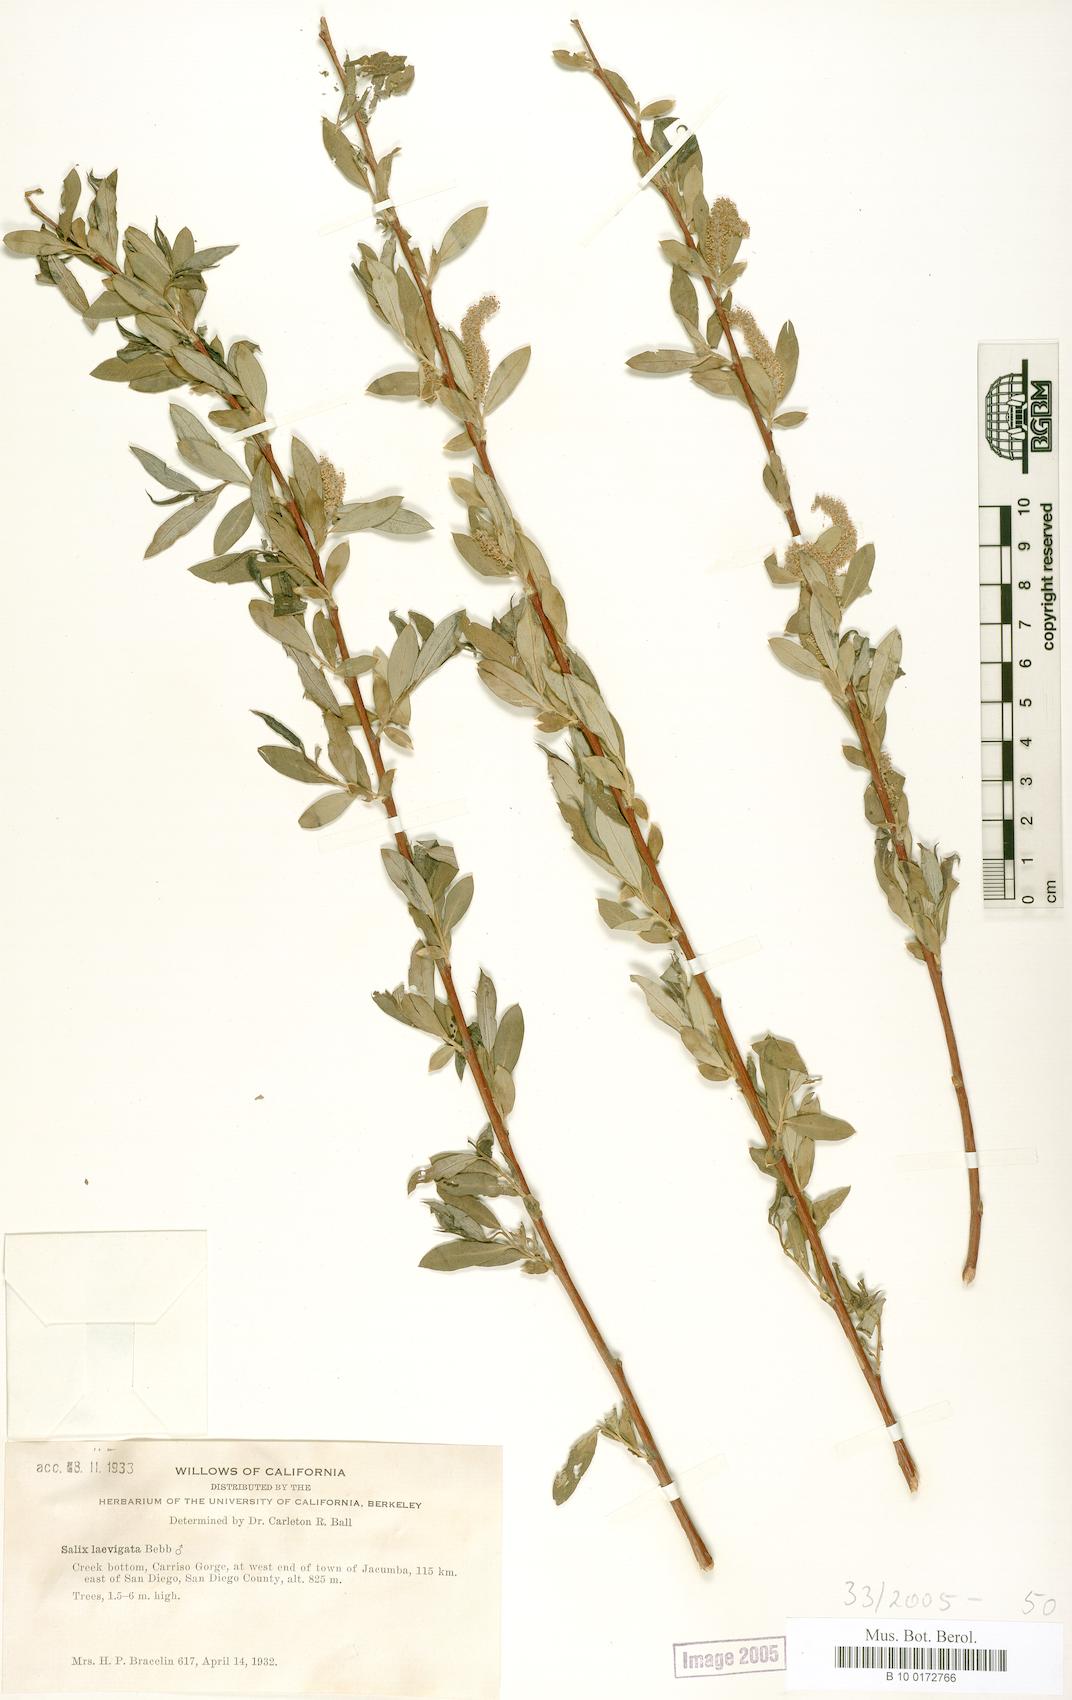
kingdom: Plantae
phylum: Tracheophyta
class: Magnoliopsida
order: Malpighiales
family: Salicaceae
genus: Salix
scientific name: Salix laevigata
